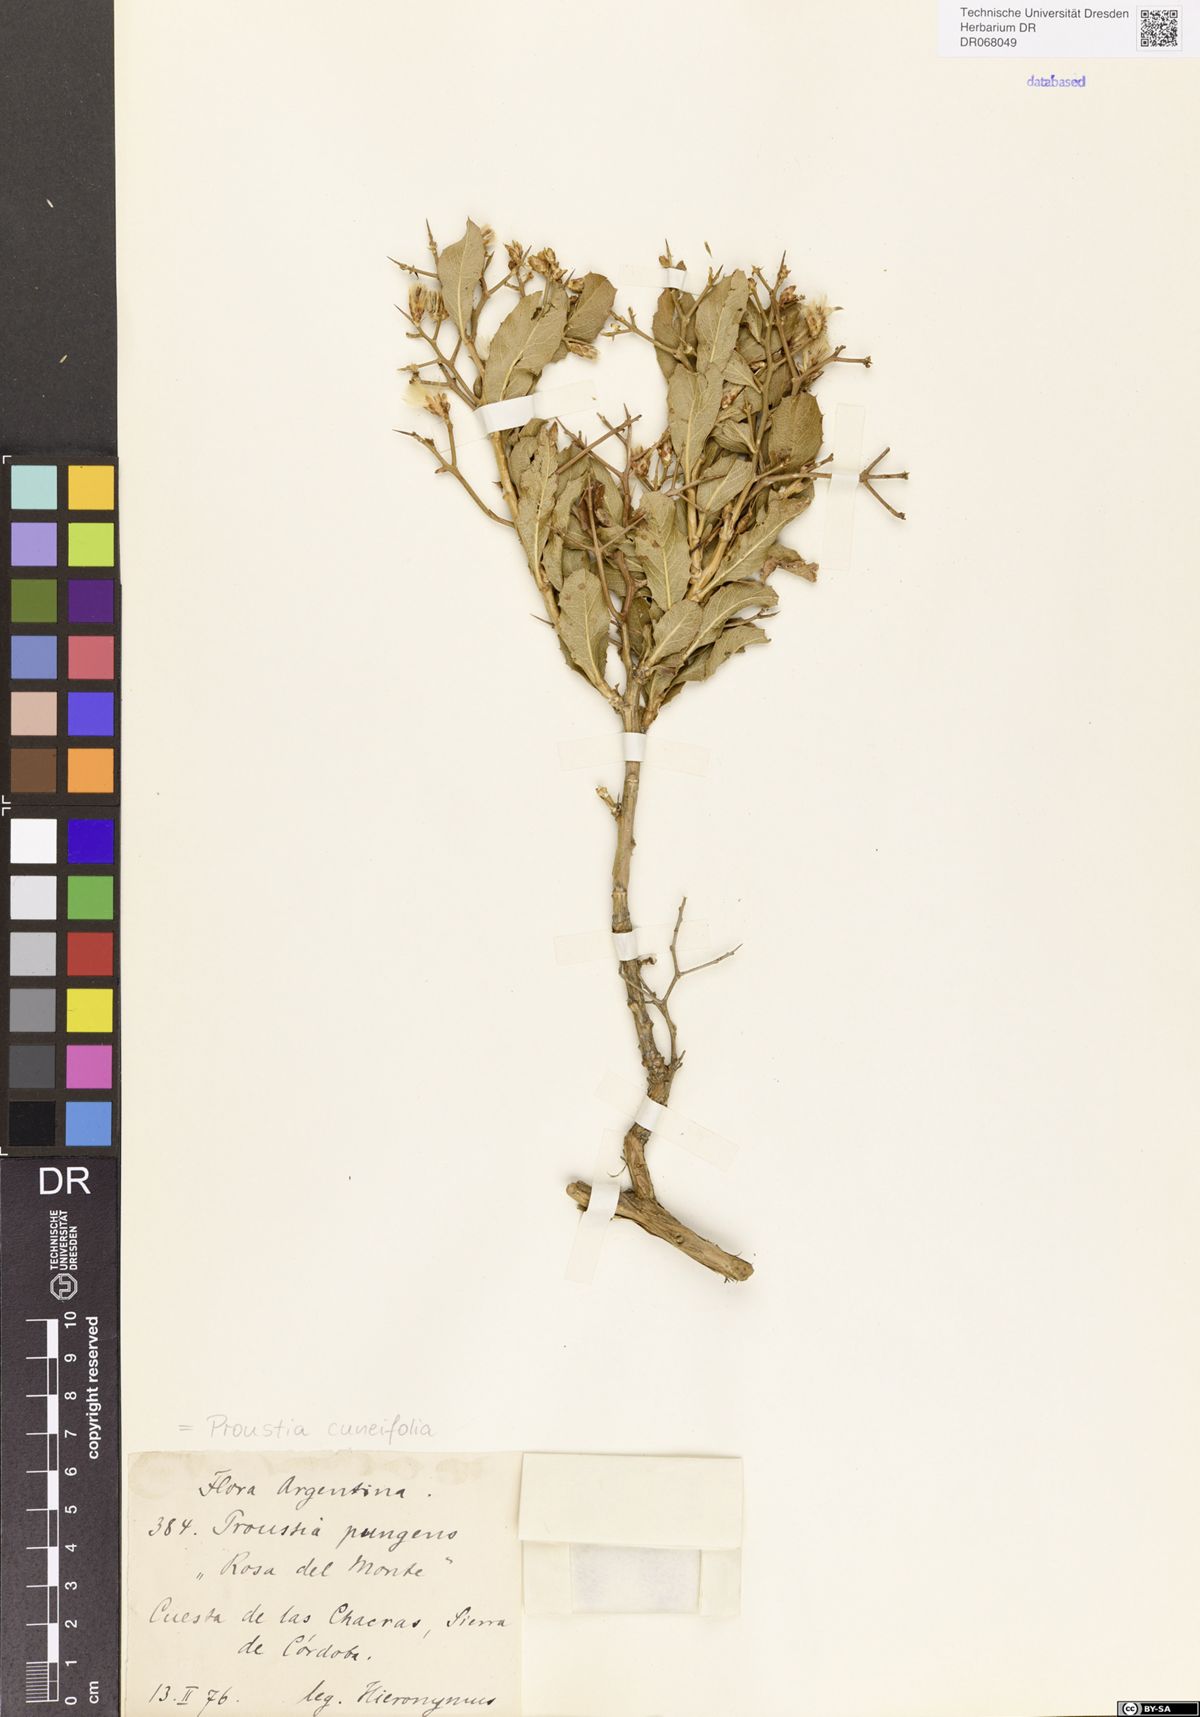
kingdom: Plantae
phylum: Tracheophyta
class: Magnoliopsida
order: Asterales
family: Asteraceae
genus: Proustia
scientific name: Proustia cuneifolia
